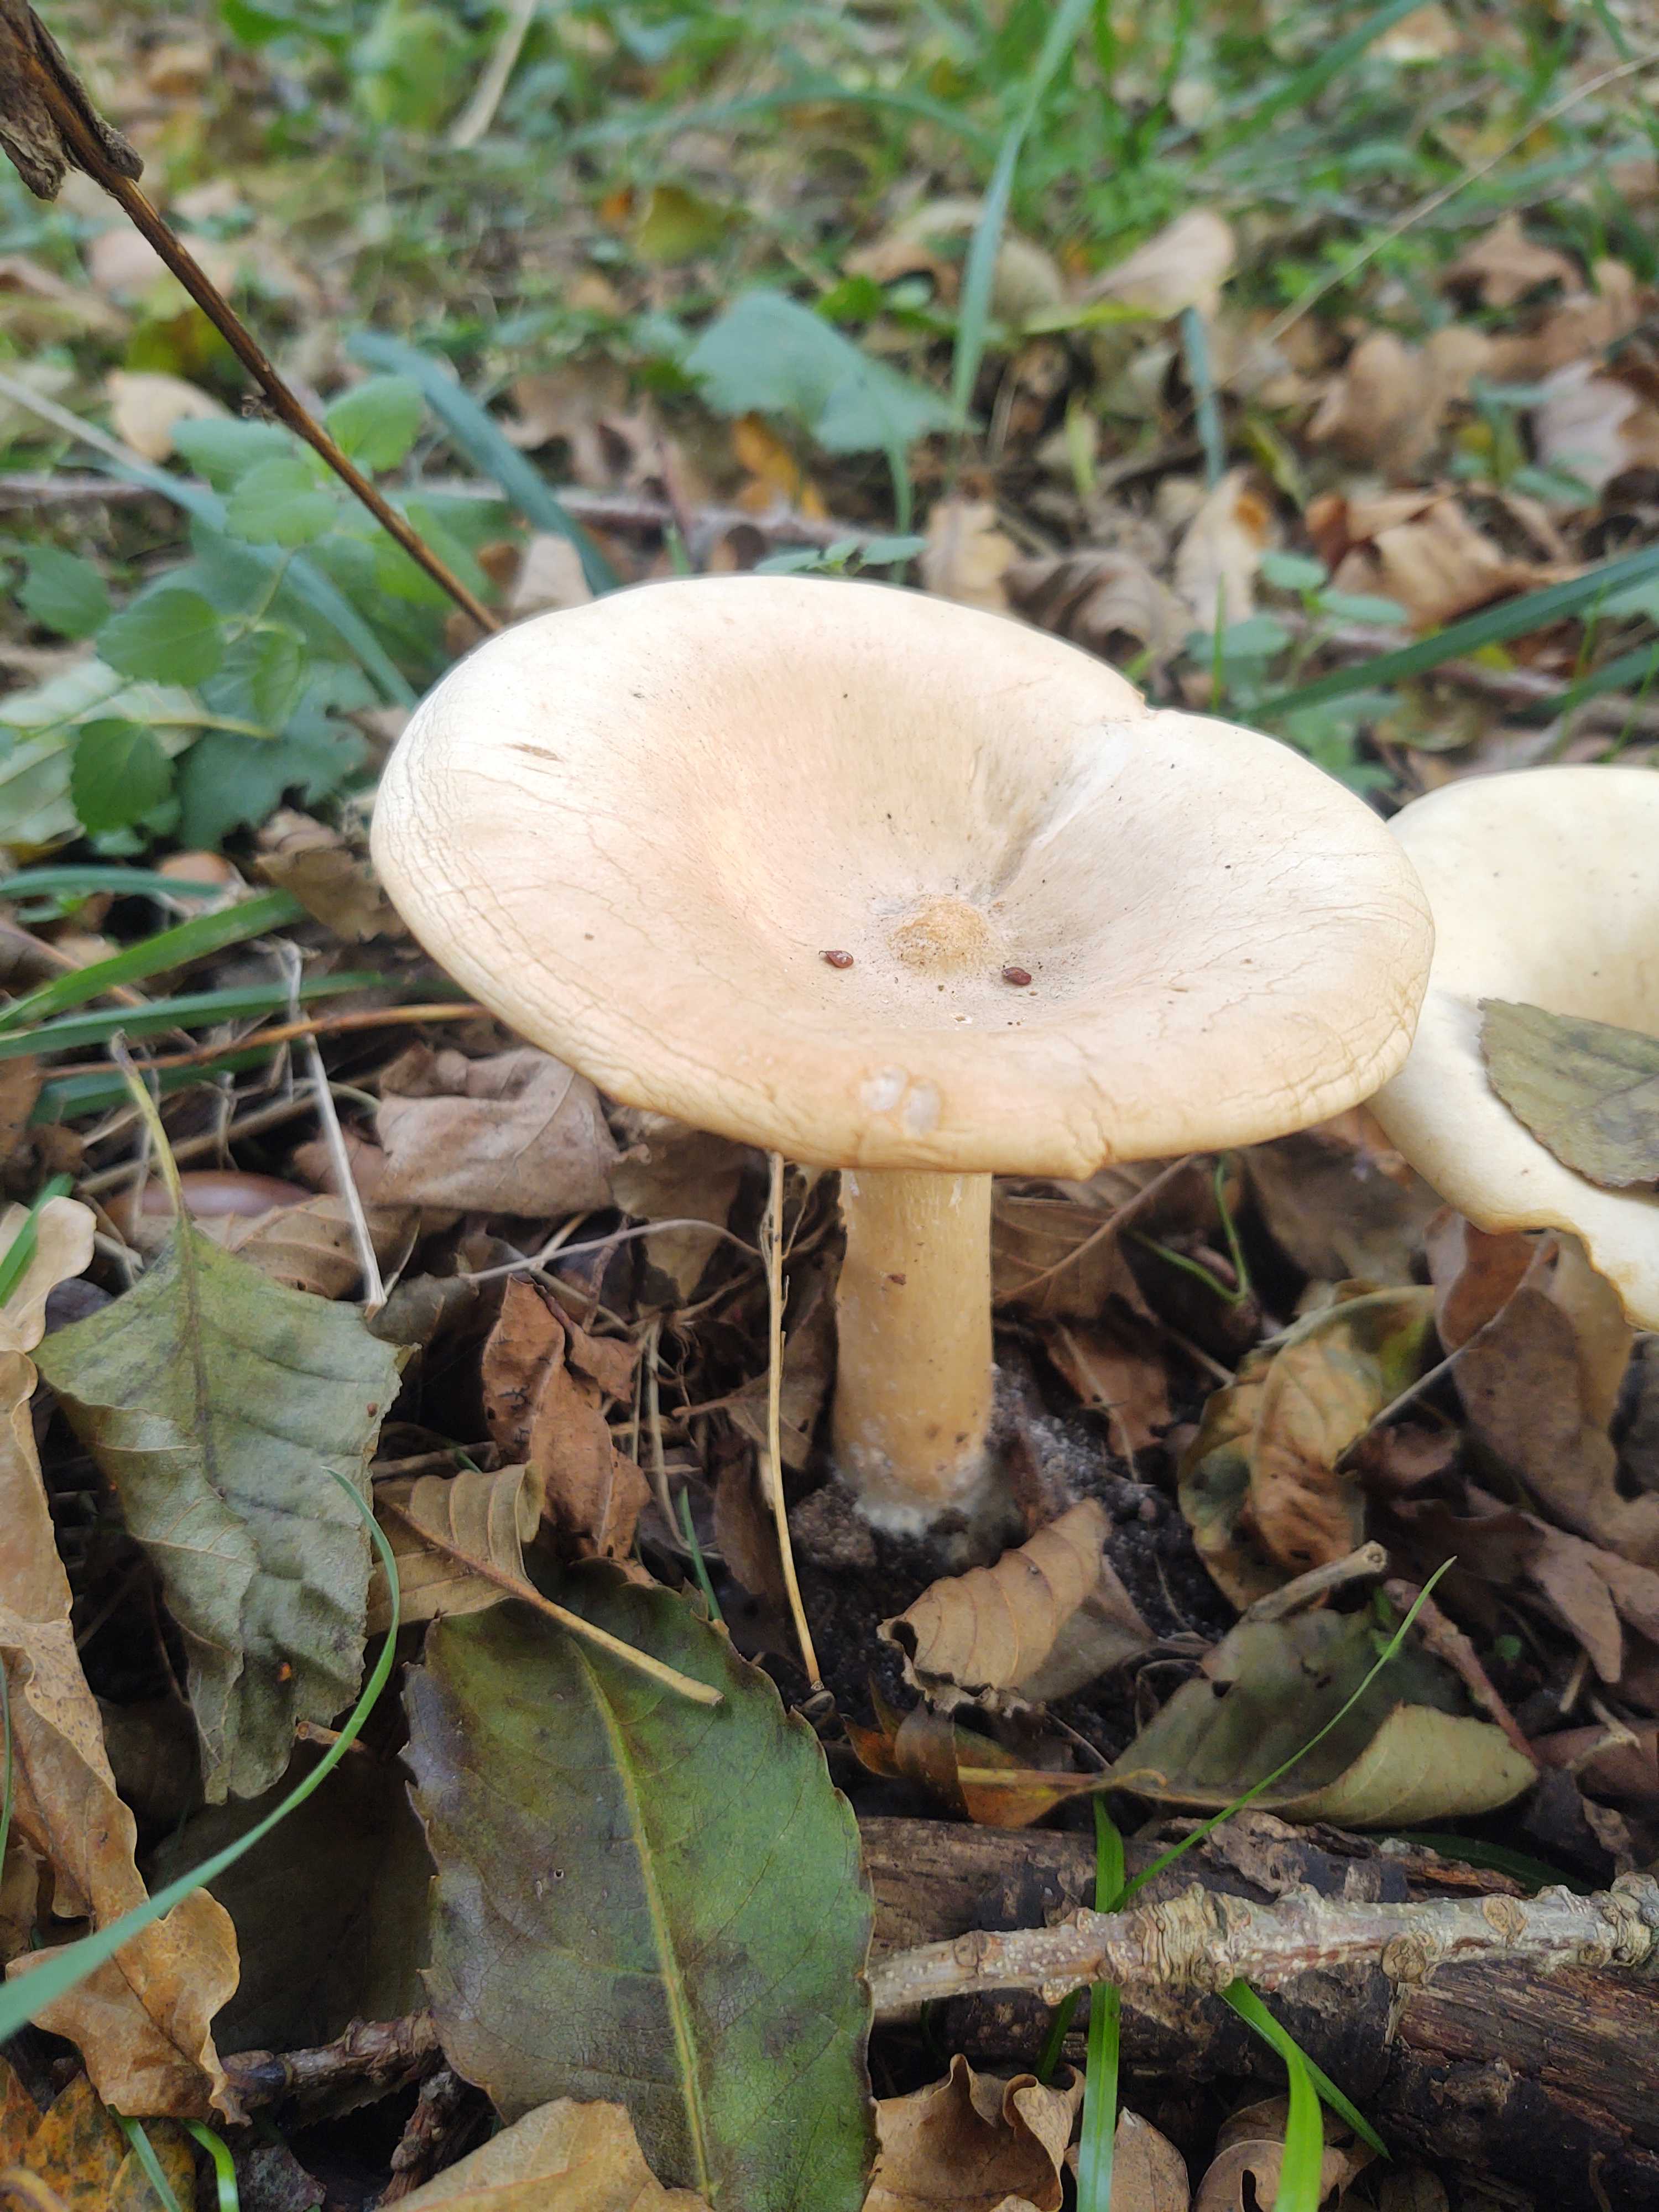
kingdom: Fungi
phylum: Basidiomycota
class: Agaricomycetes
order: Agaricales
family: Tricholomataceae
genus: Infundibulicybe
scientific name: Infundibulicybe geotropa
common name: stor tragthat
